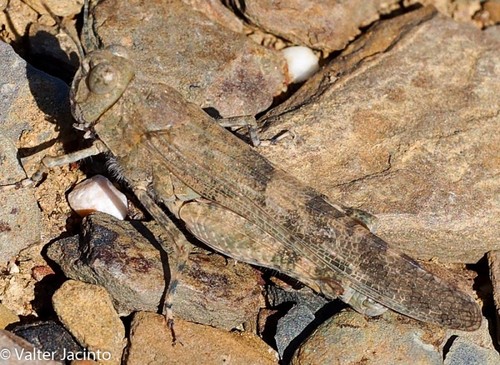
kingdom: Animalia
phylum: Arthropoda
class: Insecta
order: Orthoptera
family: Acrididae
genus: Sphingonotus
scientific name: Sphingonotus rubescens
